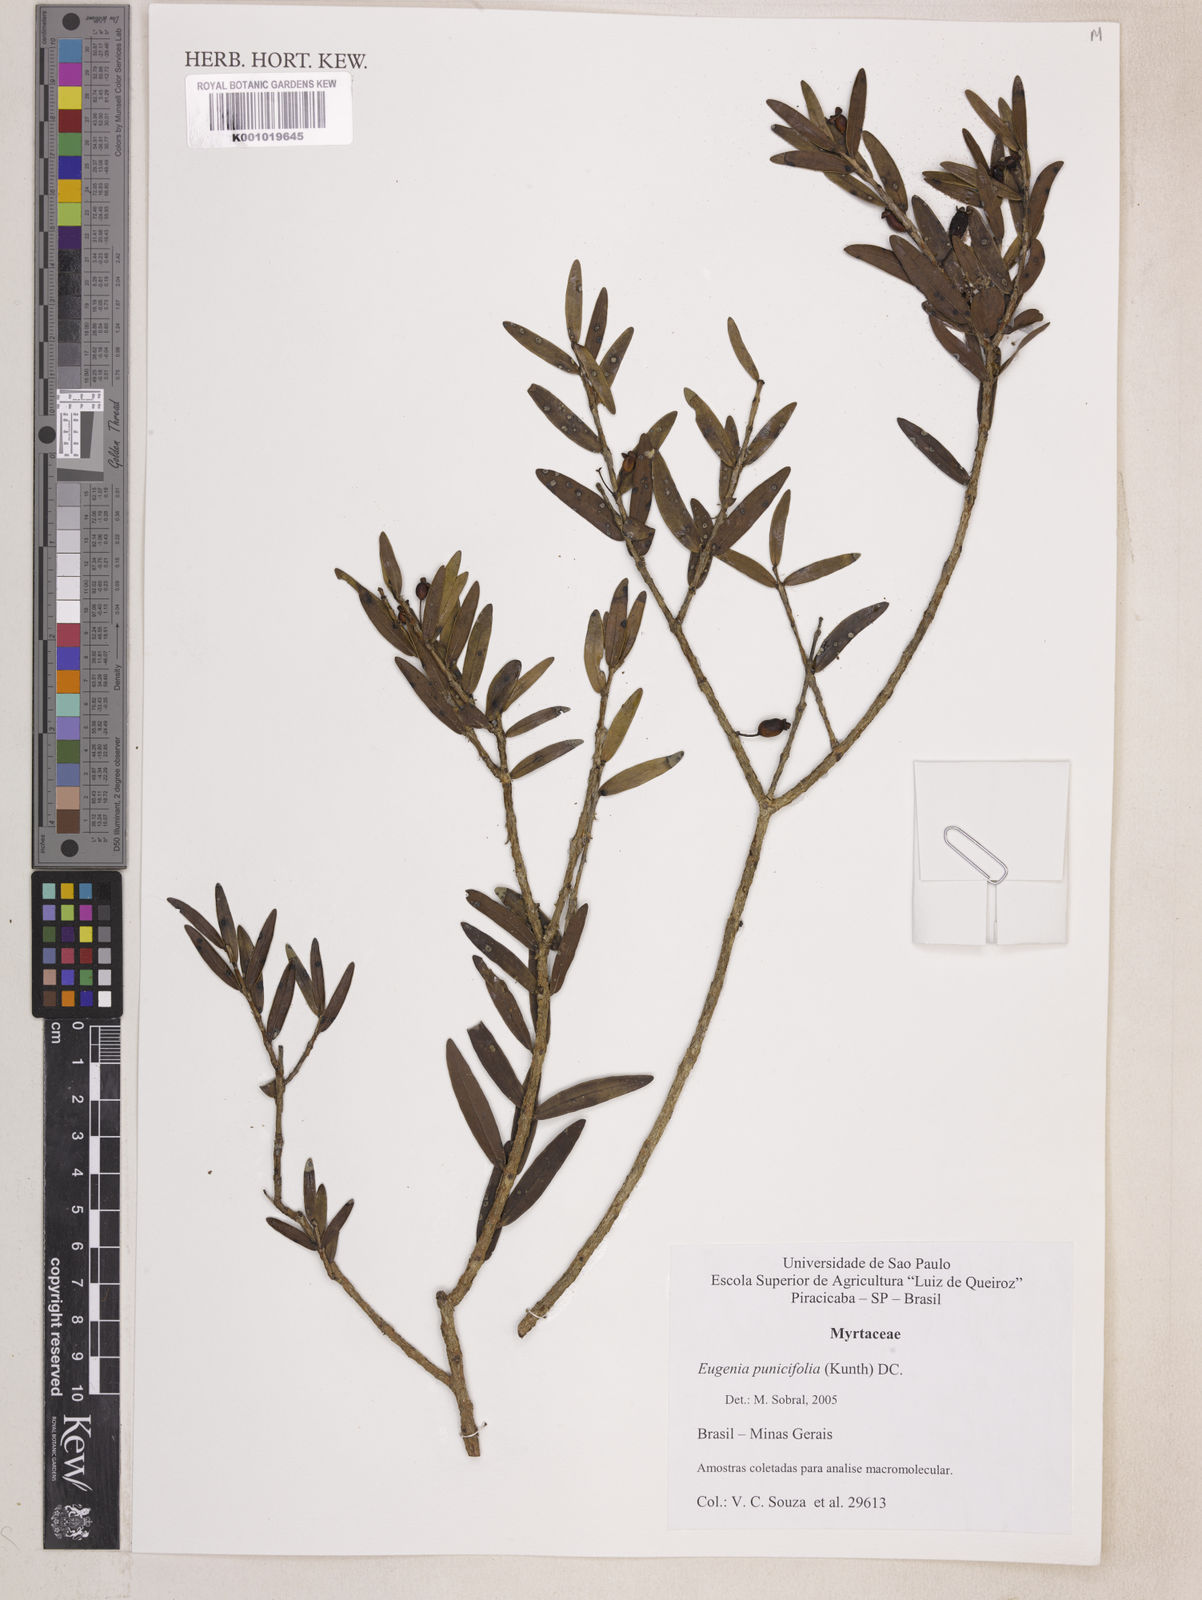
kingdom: Plantae
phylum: Tracheophyta
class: Magnoliopsida
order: Myrtales
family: Myrtaceae
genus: Eugenia
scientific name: Eugenia punicifolia
